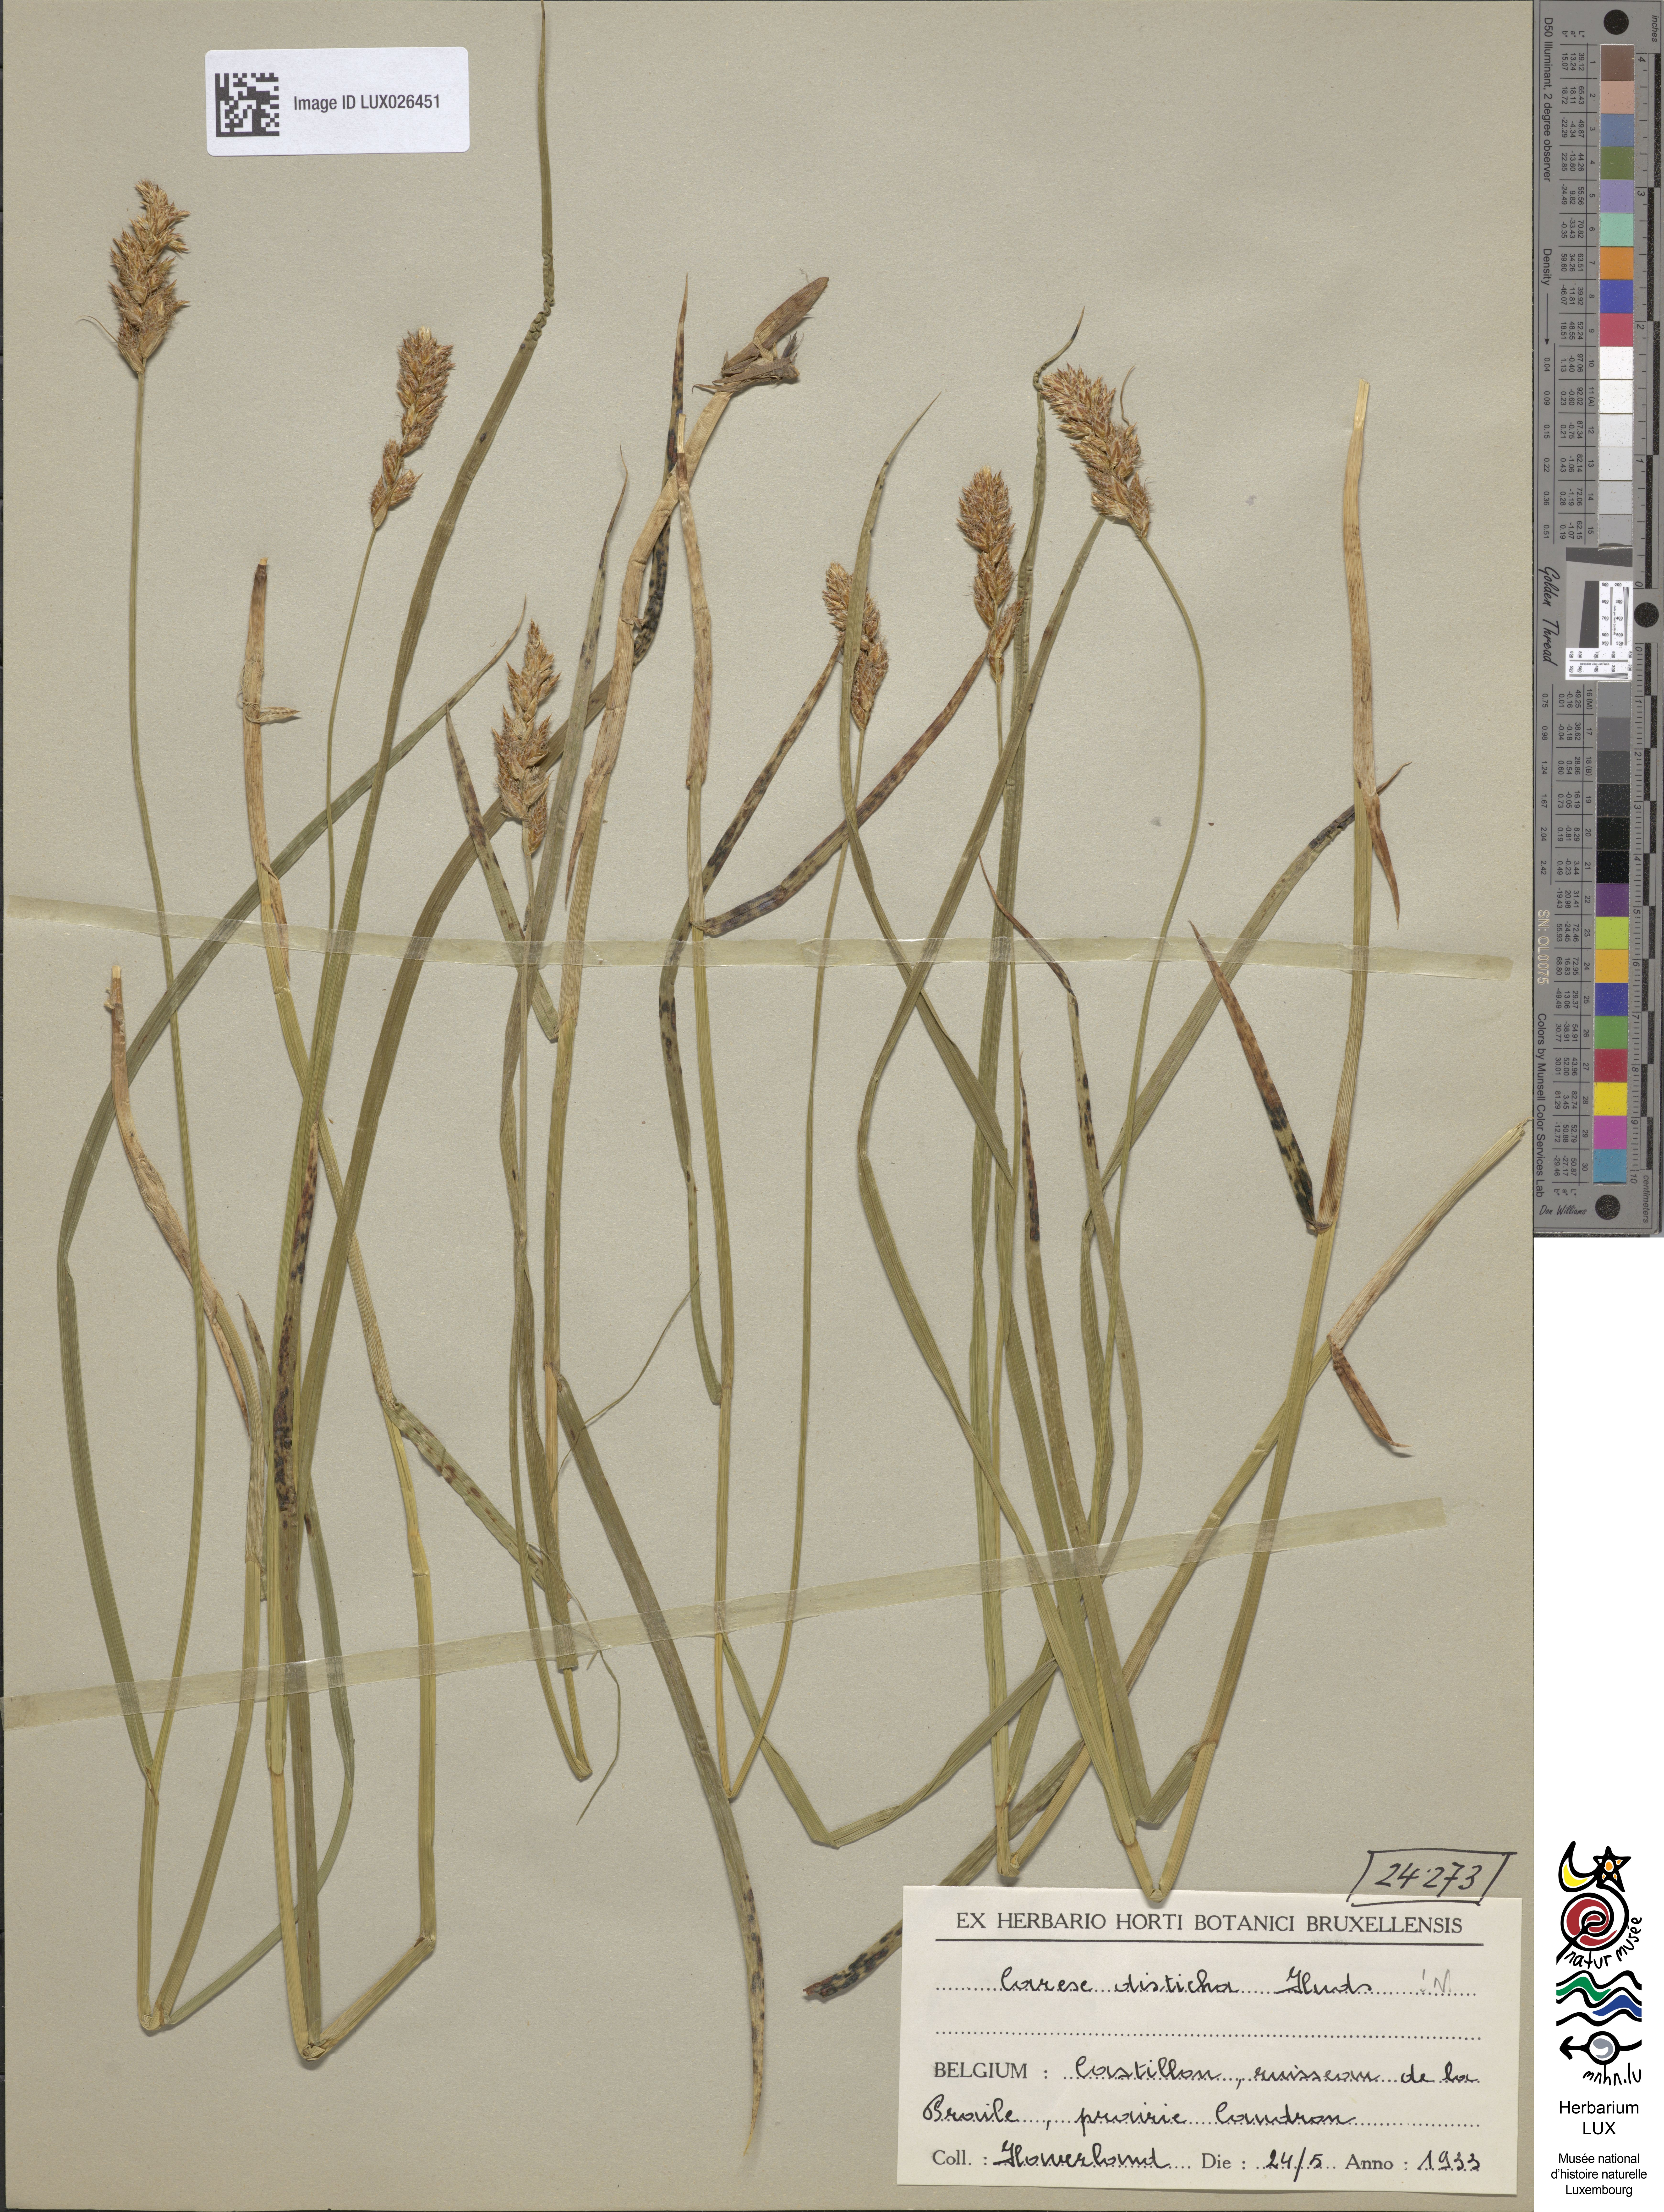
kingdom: Plantae
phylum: Tracheophyta
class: Liliopsida
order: Poales
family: Cyperaceae
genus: Carex
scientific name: Carex disticha
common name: Brown sedge
